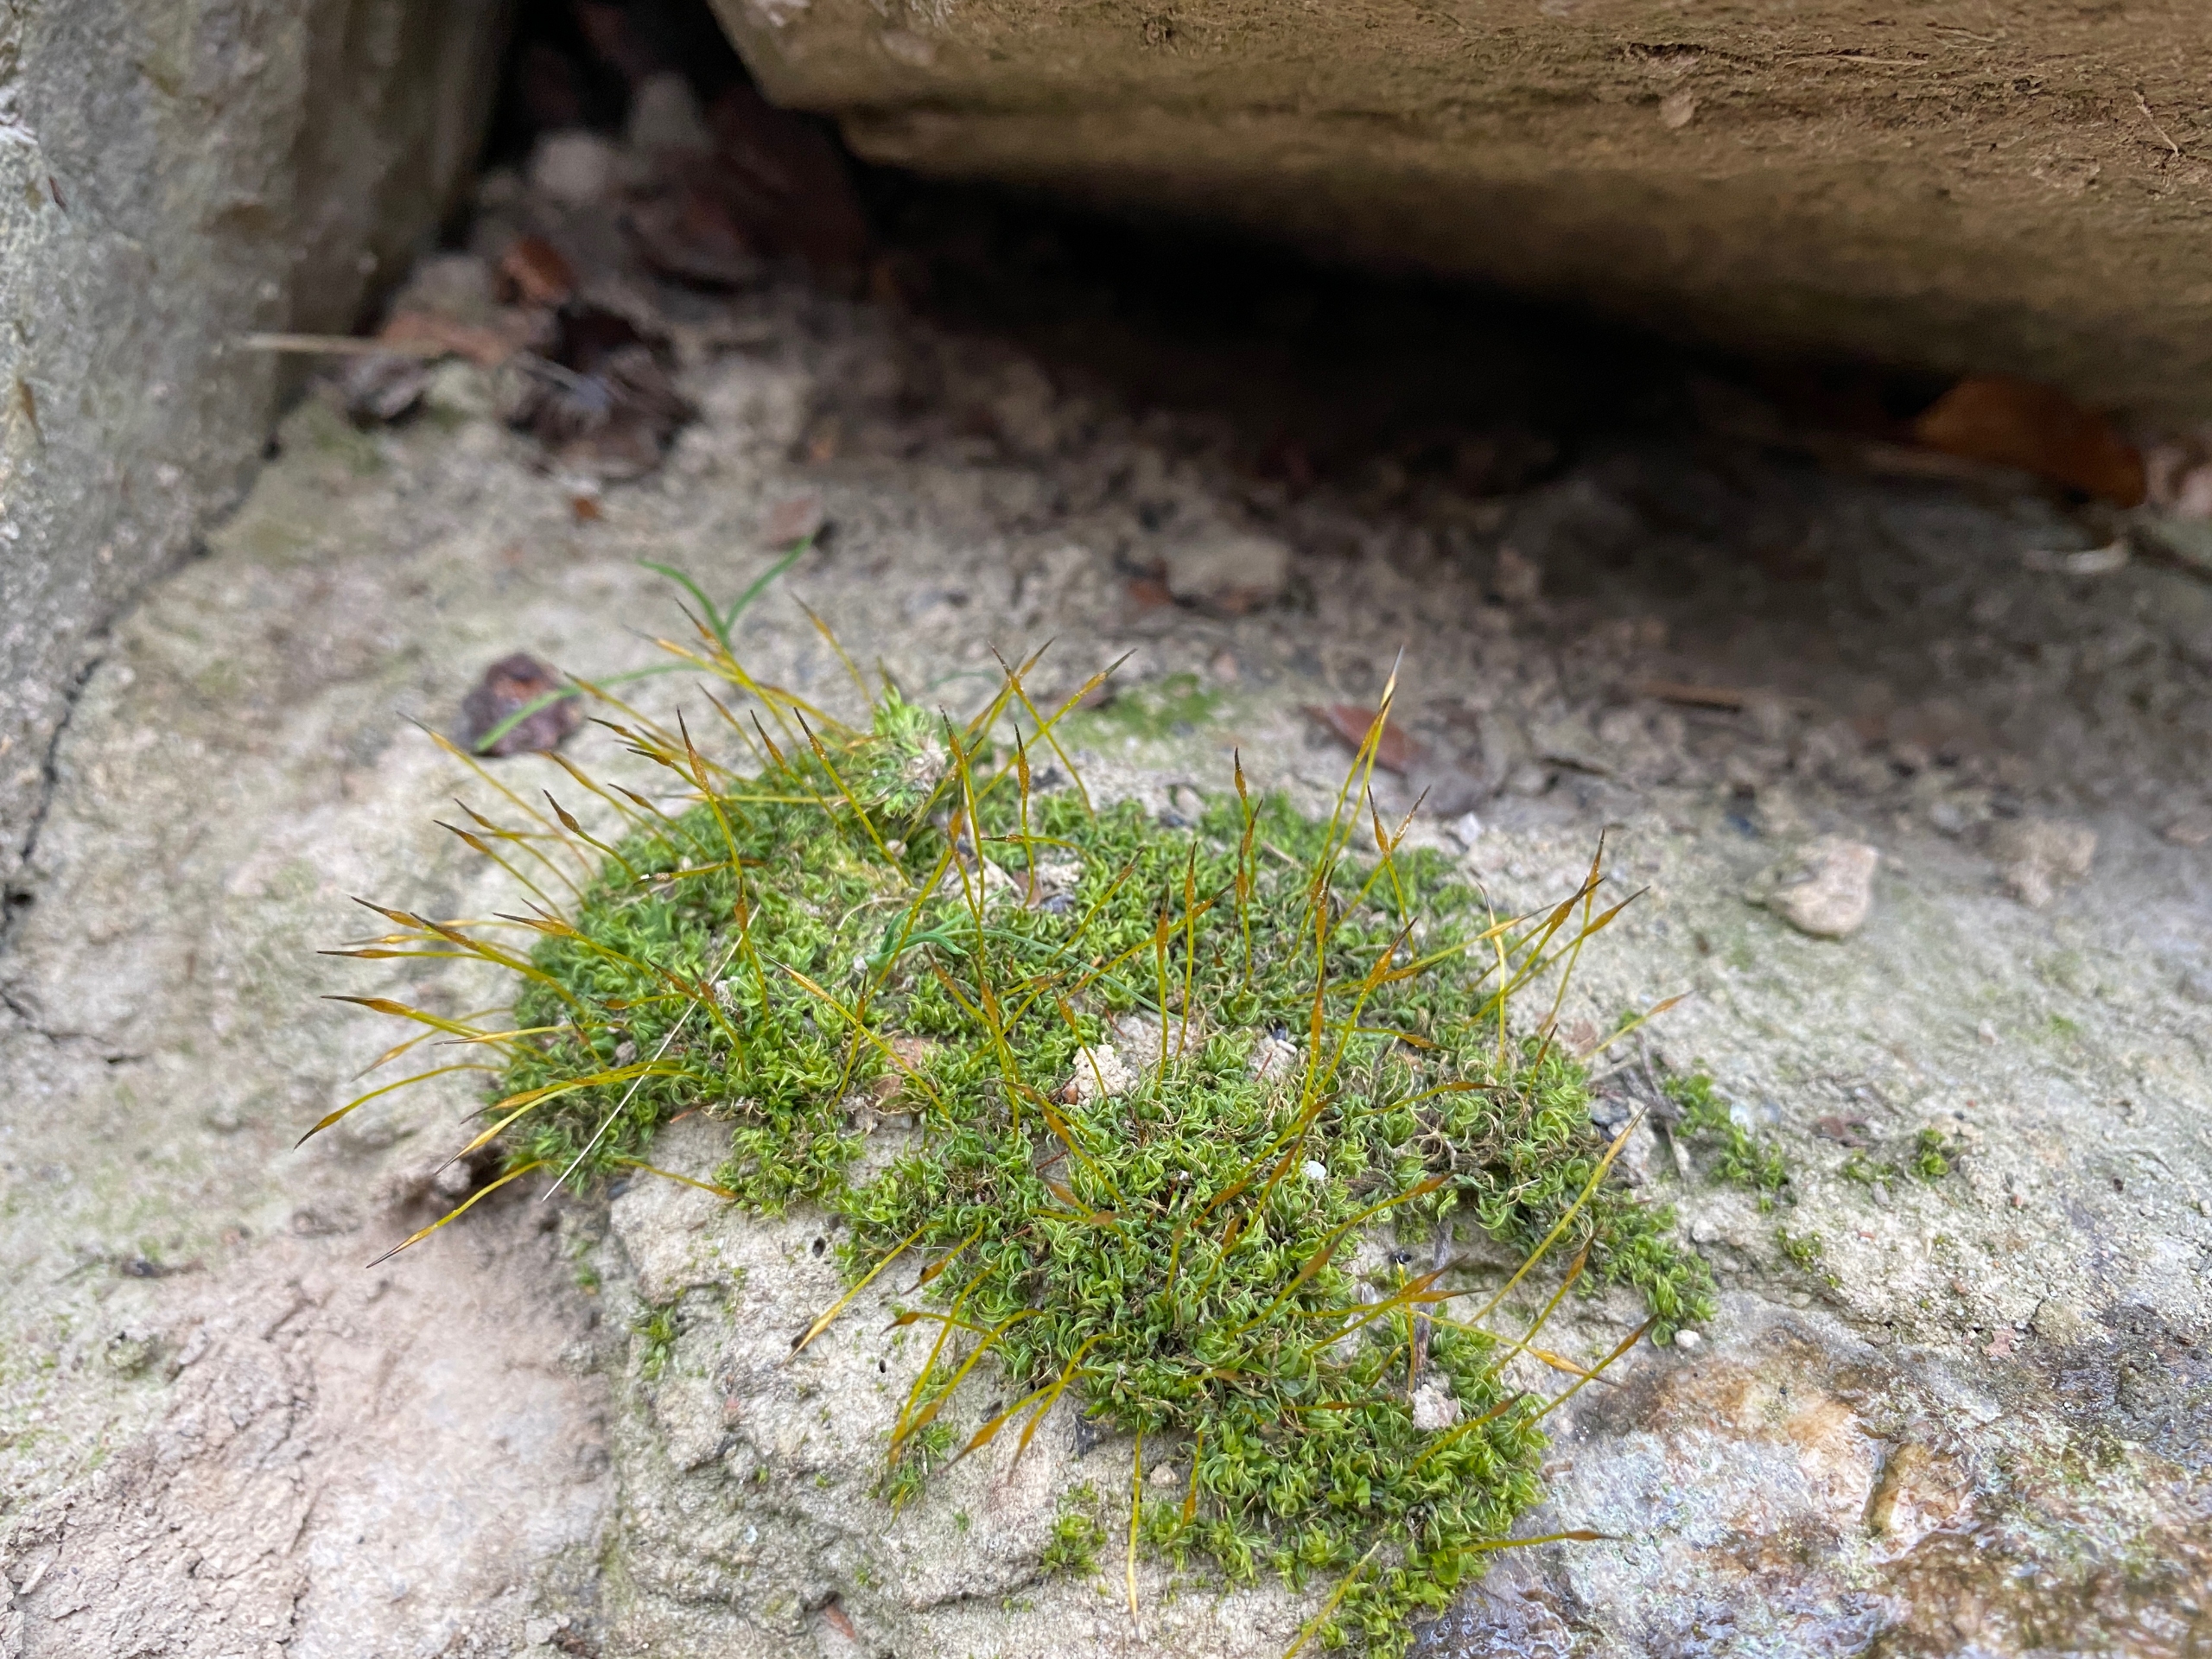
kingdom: Plantae
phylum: Bryophyta
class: Bryopsida
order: Pottiales
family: Pottiaceae
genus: Tortula
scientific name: Tortula schimperi
